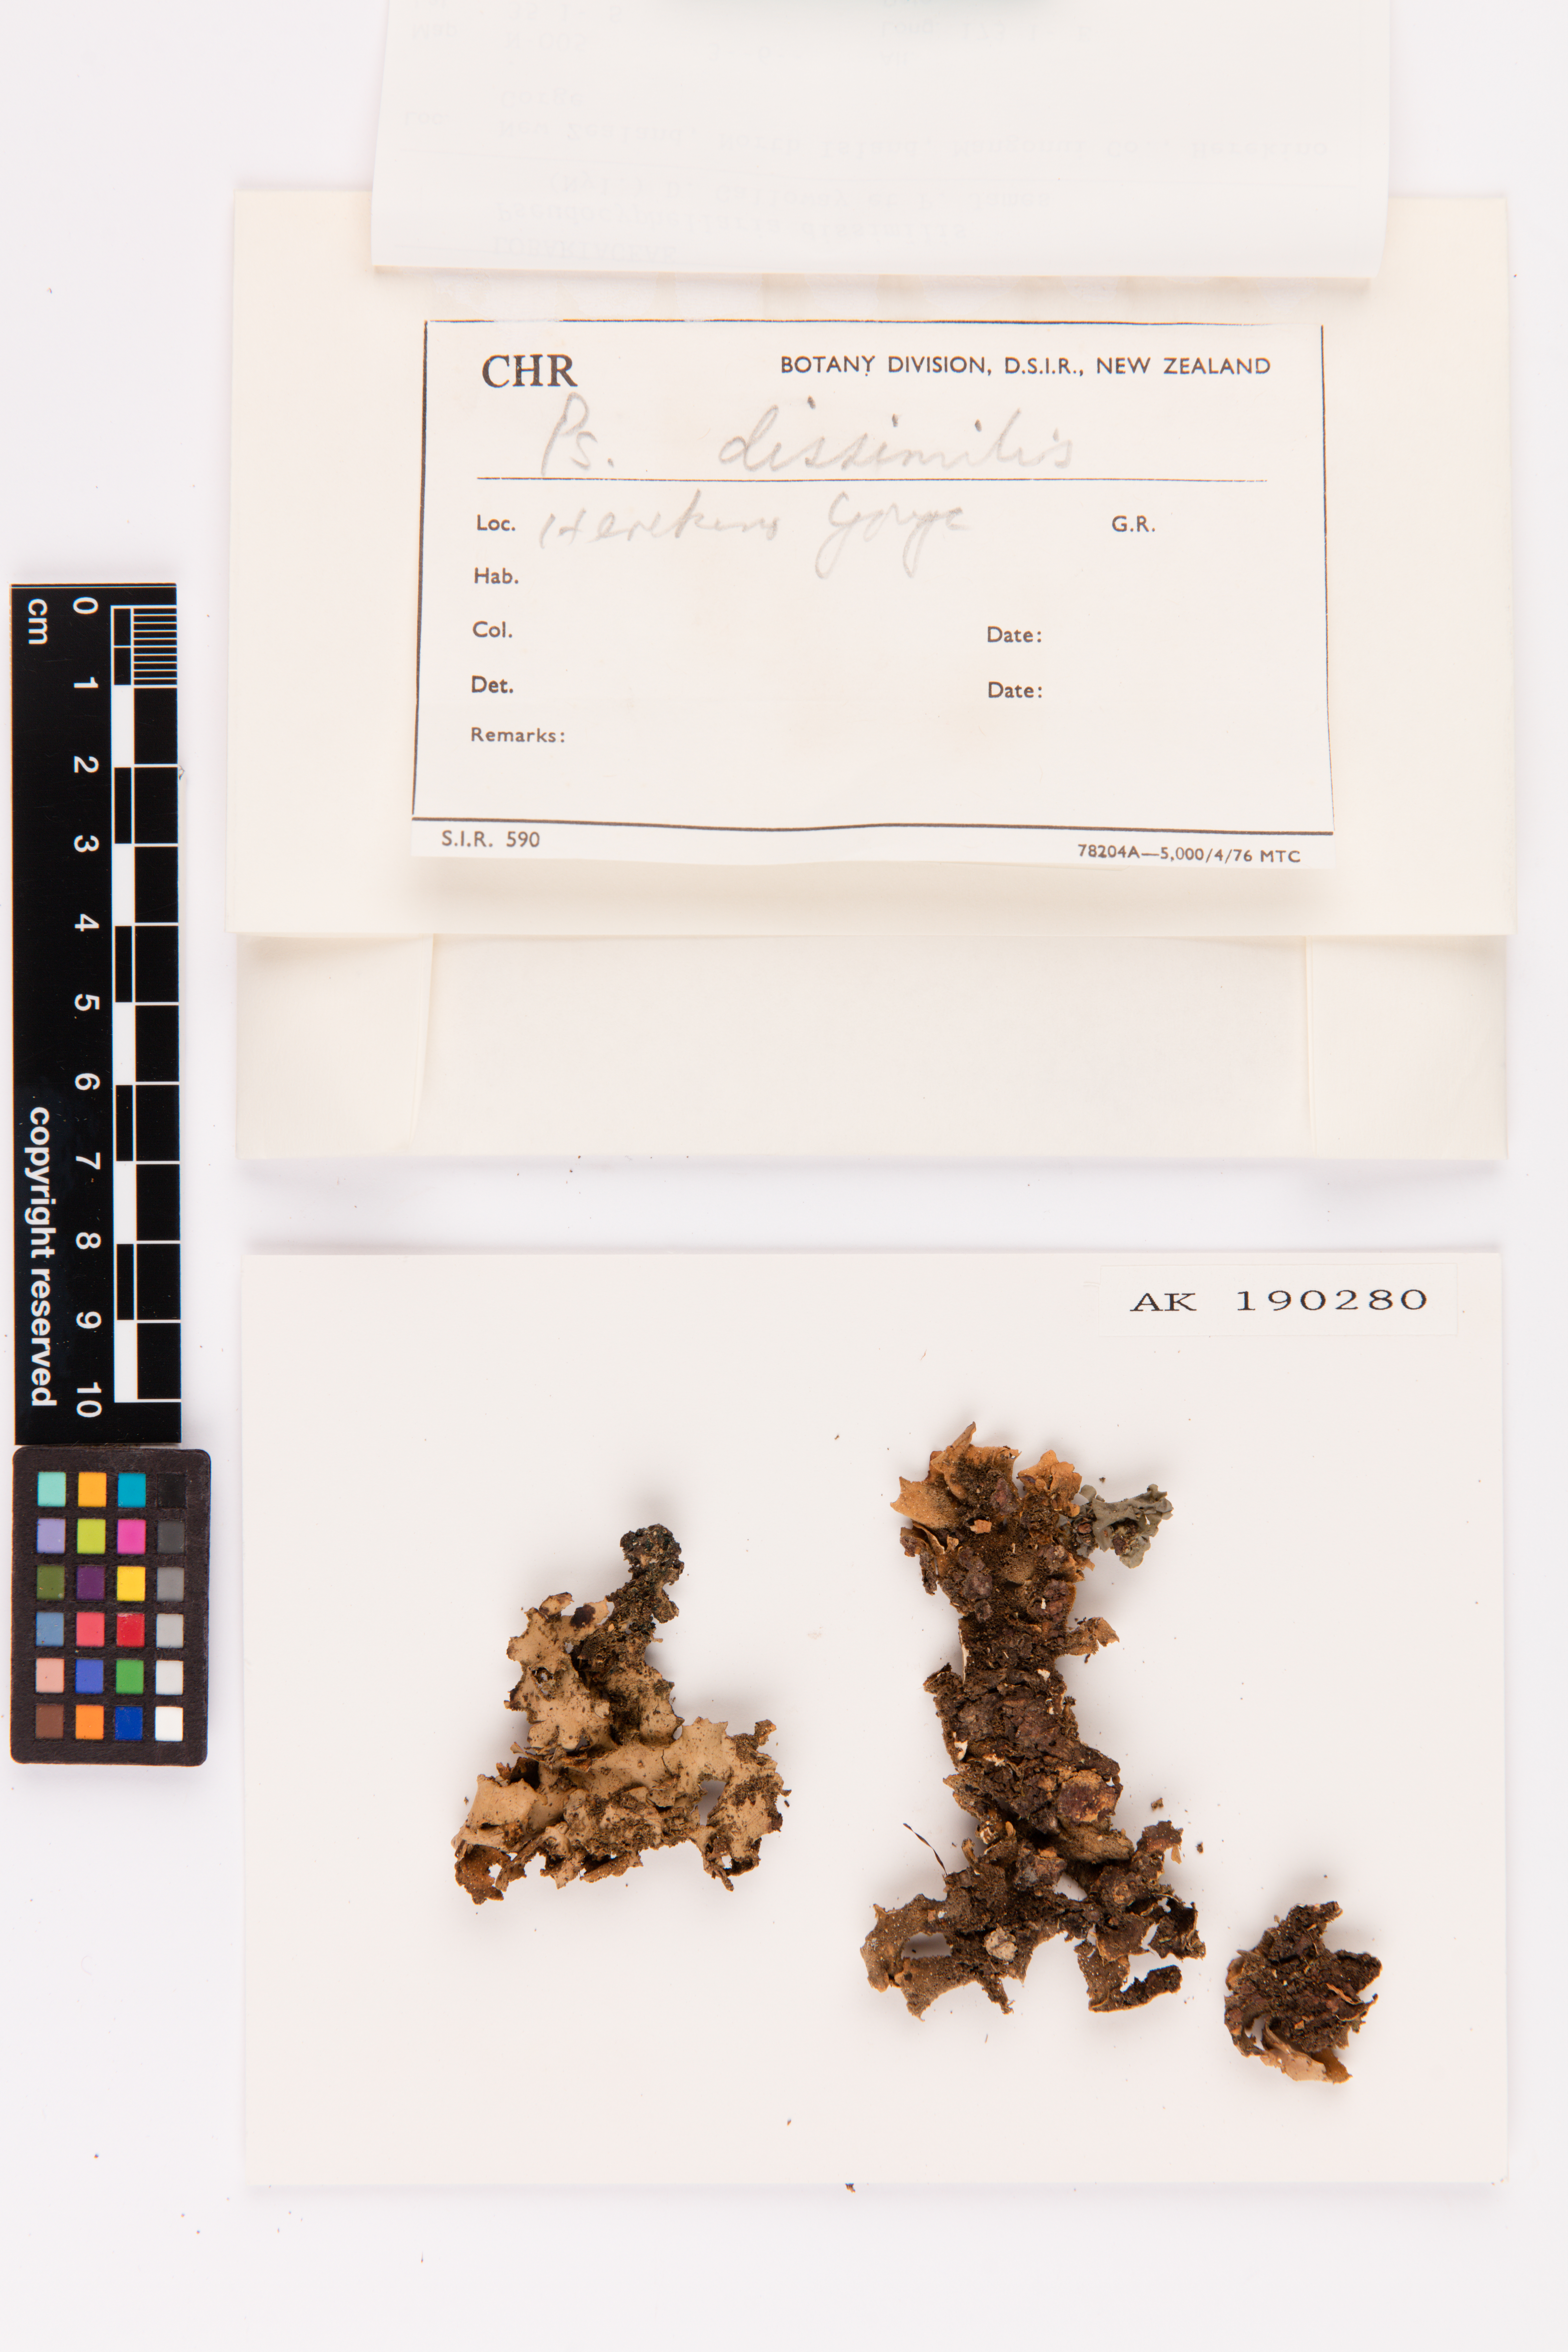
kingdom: Fungi
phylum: Ascomycota
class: Lecanoromycetes
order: Peltigerales
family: Lobariaceae
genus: Pseudocyphellaria
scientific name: Pseudocyphellaria dissimilis
